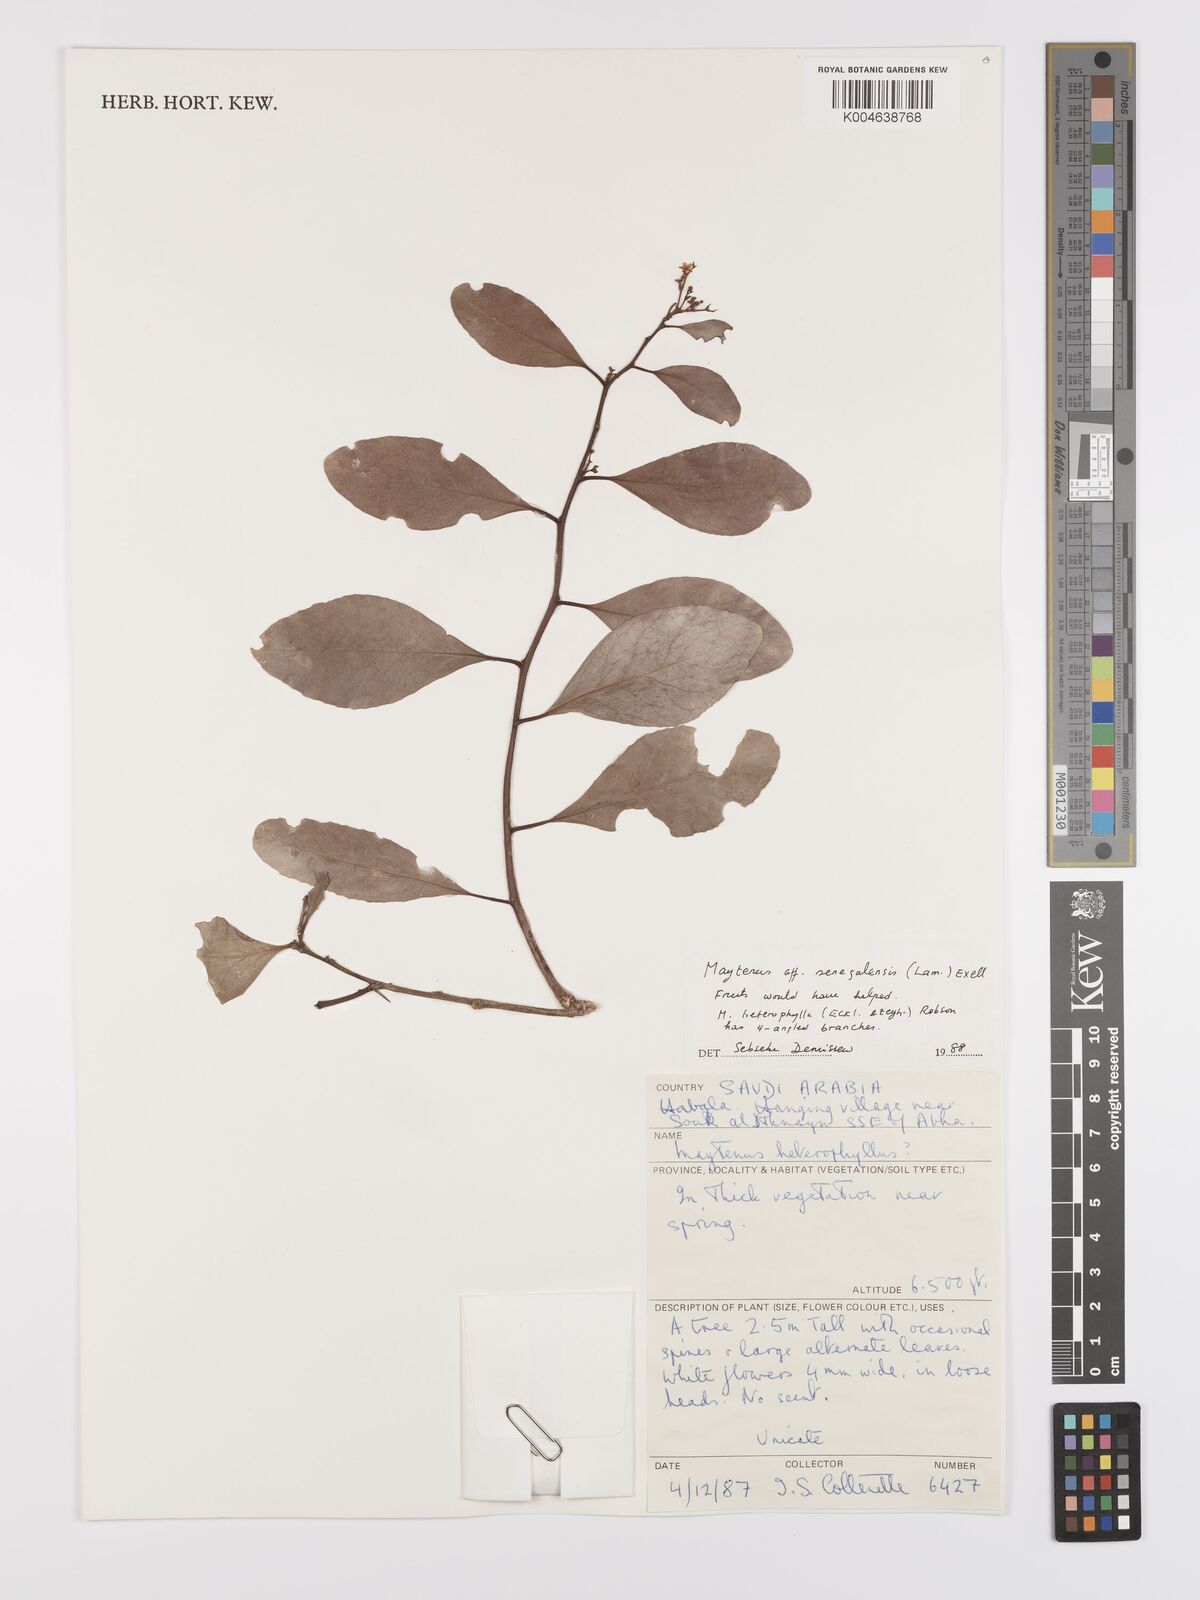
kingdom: Plantae
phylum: Tracheophyta
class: Magnoliopsida
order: Celastrales
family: Celastraceae
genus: Gymnosporia
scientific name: Gymnosporia senegalensis
